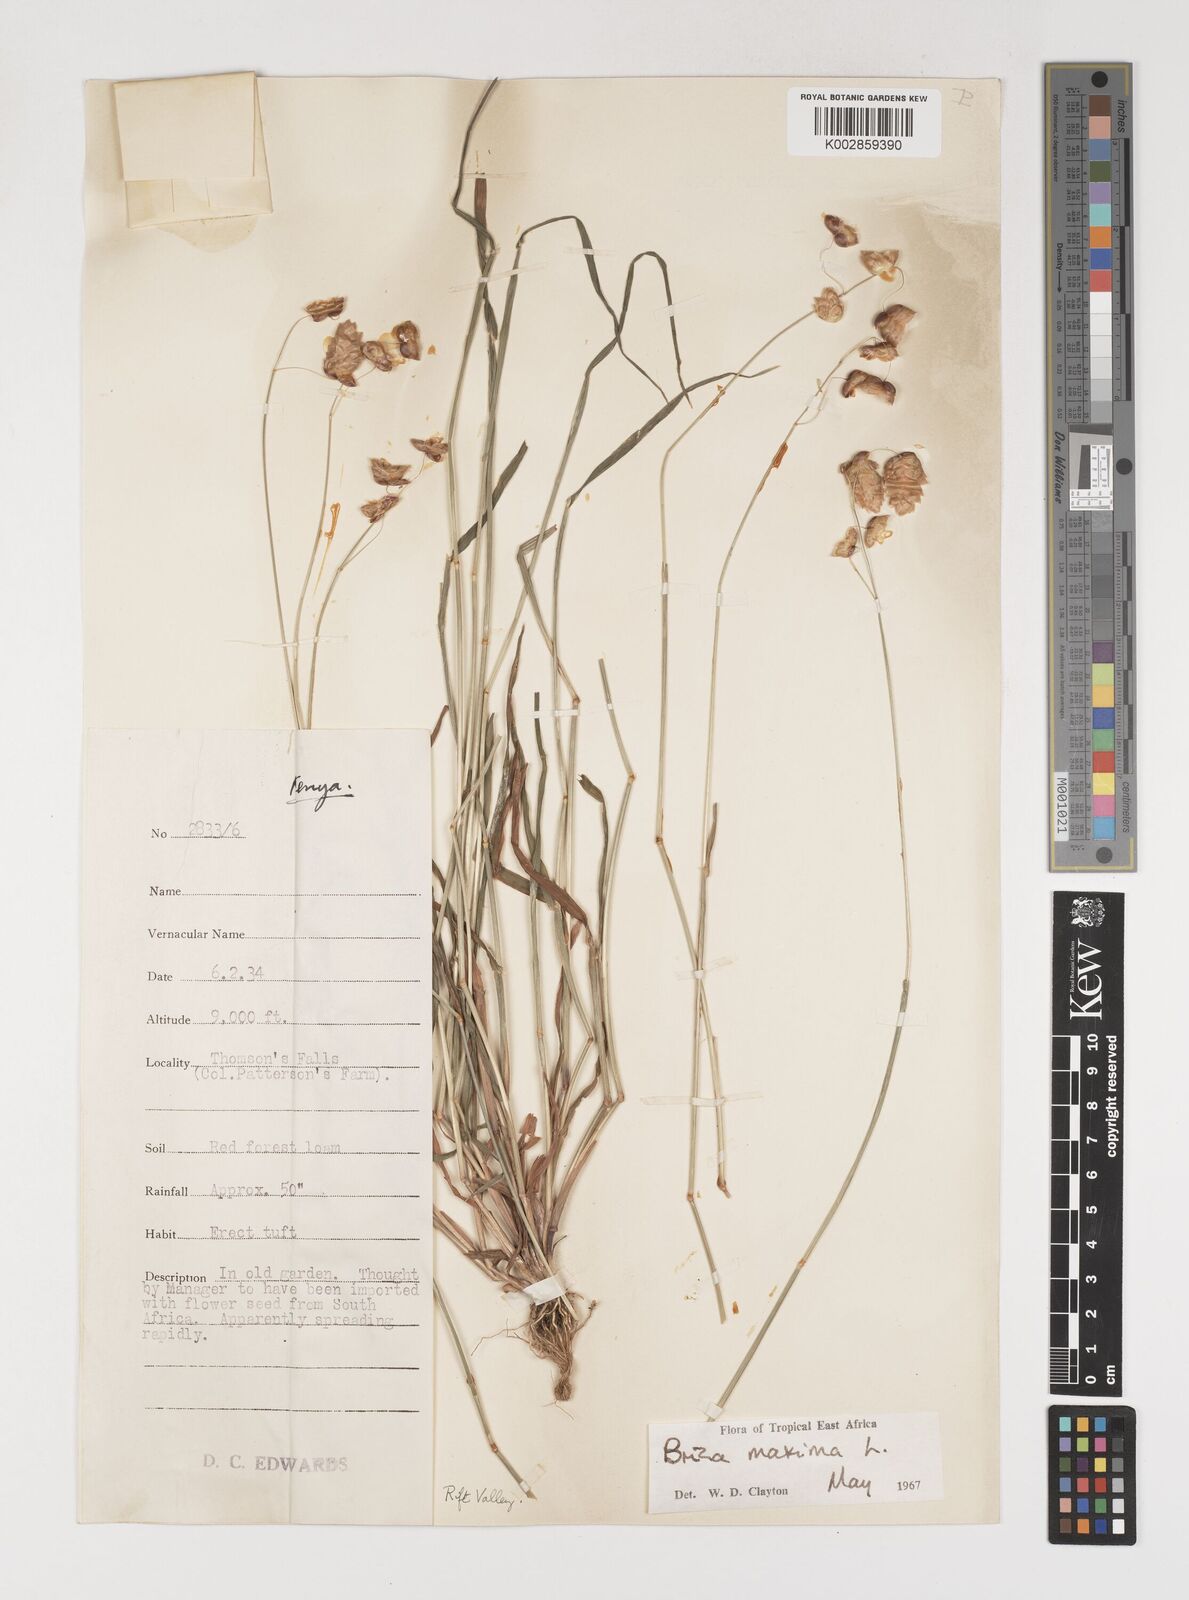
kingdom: Plantae
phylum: Tracheophyta
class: Liliopsida
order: Poales
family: Poaceae
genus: Briza
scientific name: Briza maxima
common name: Big quakinggrass
